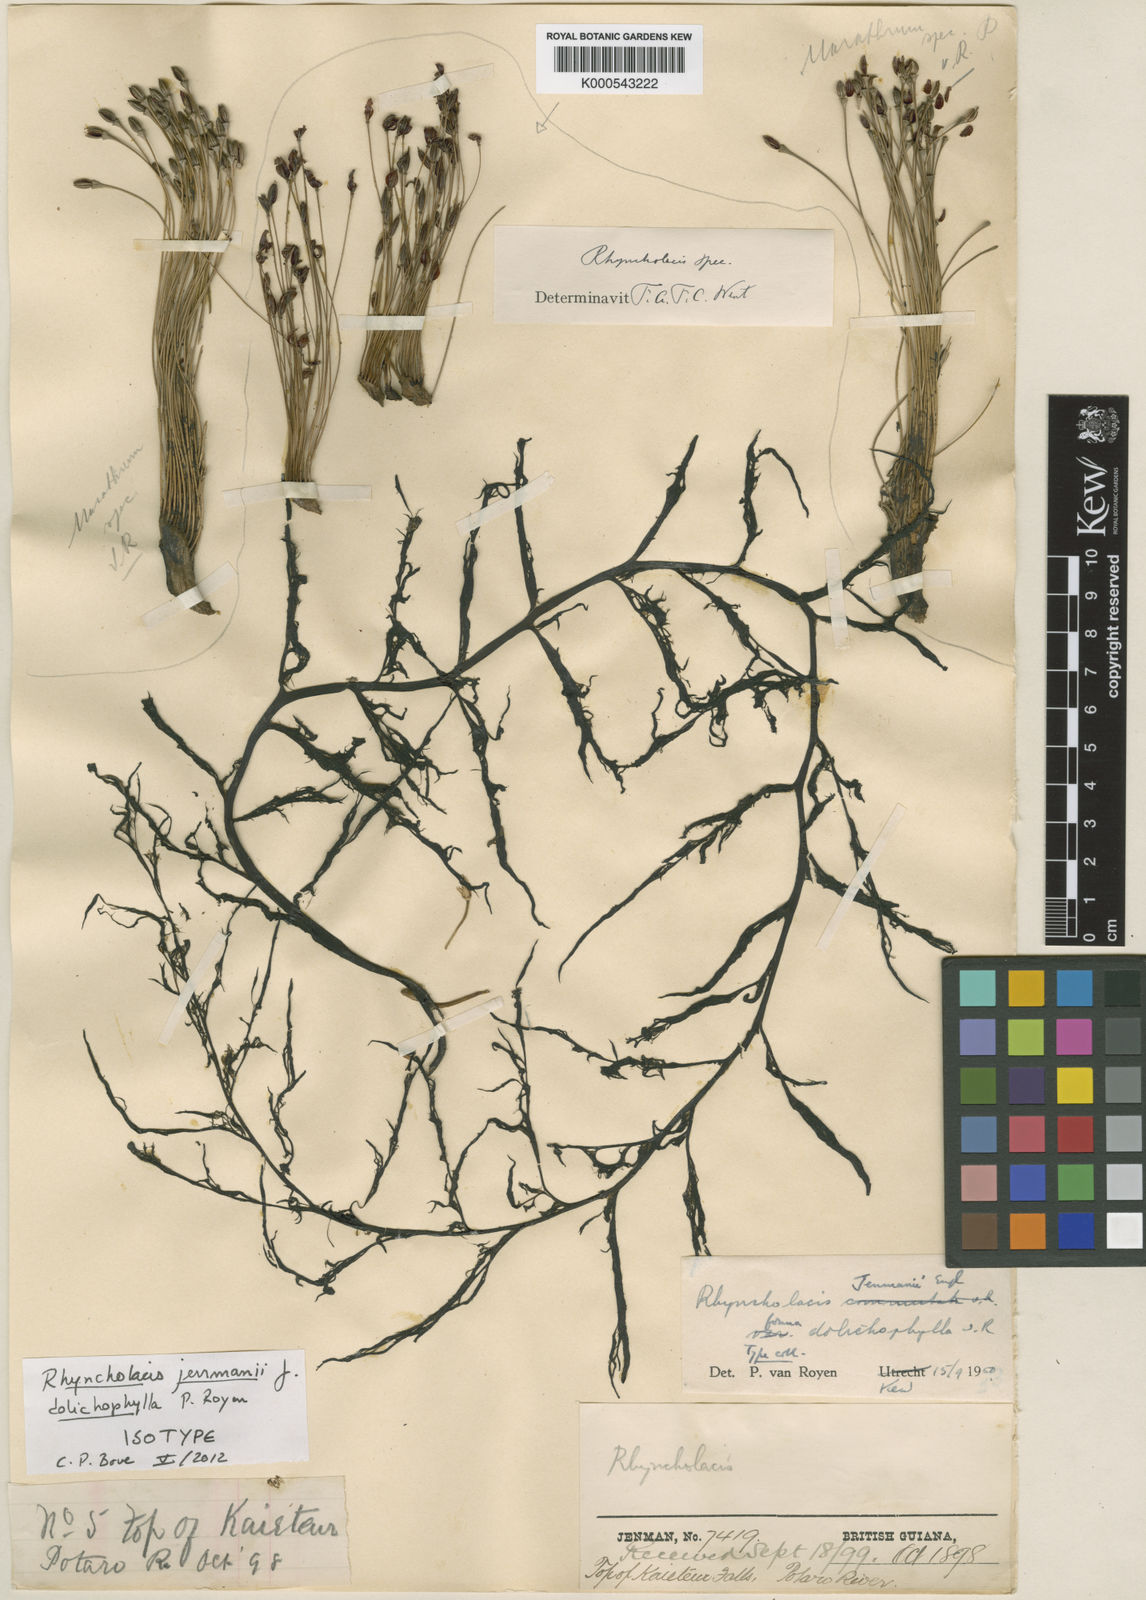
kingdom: Plantae
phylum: Tracheophyta
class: Magnoliopsida
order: Malpighiales
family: Podostemaceae
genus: Rhyncholacis
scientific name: Rhyncholacis jenmanii
